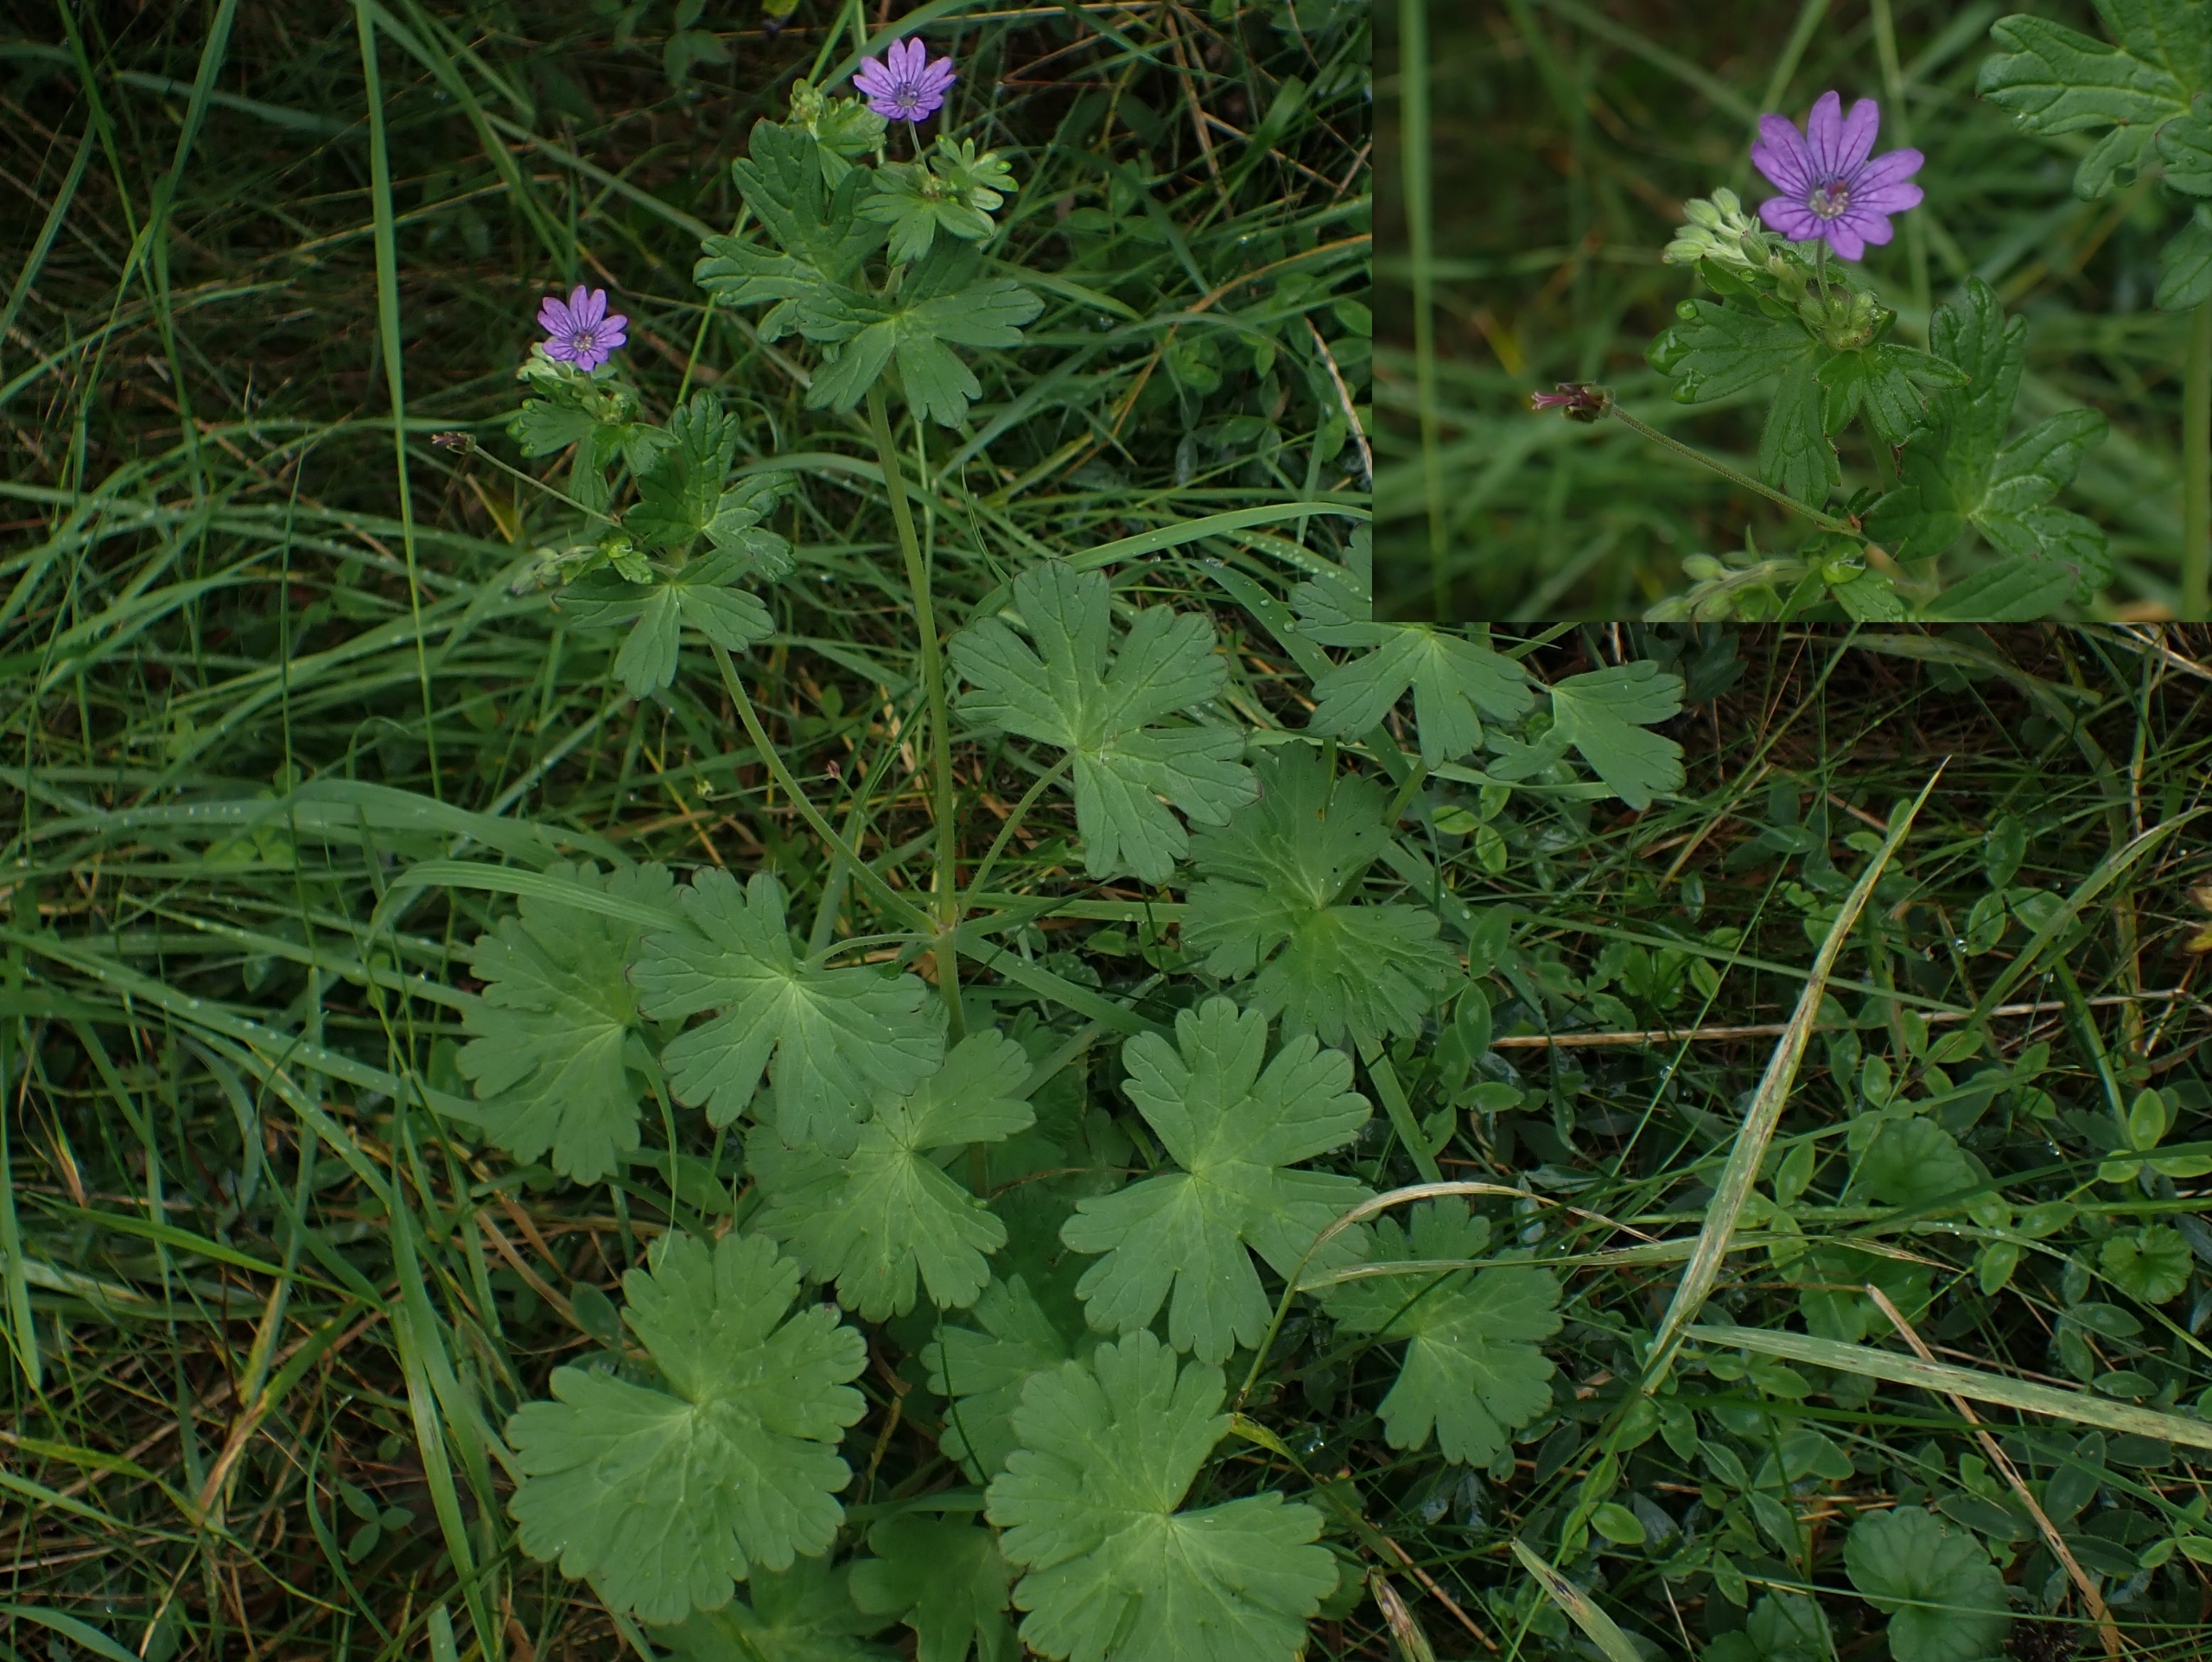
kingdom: Plantae
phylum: Tracheophyta
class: Magnoliopsida
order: Geraniales
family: Geraniaceae
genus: Geranium
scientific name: Geranium pyrenaicum
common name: Pyrenæisk storkenæb
